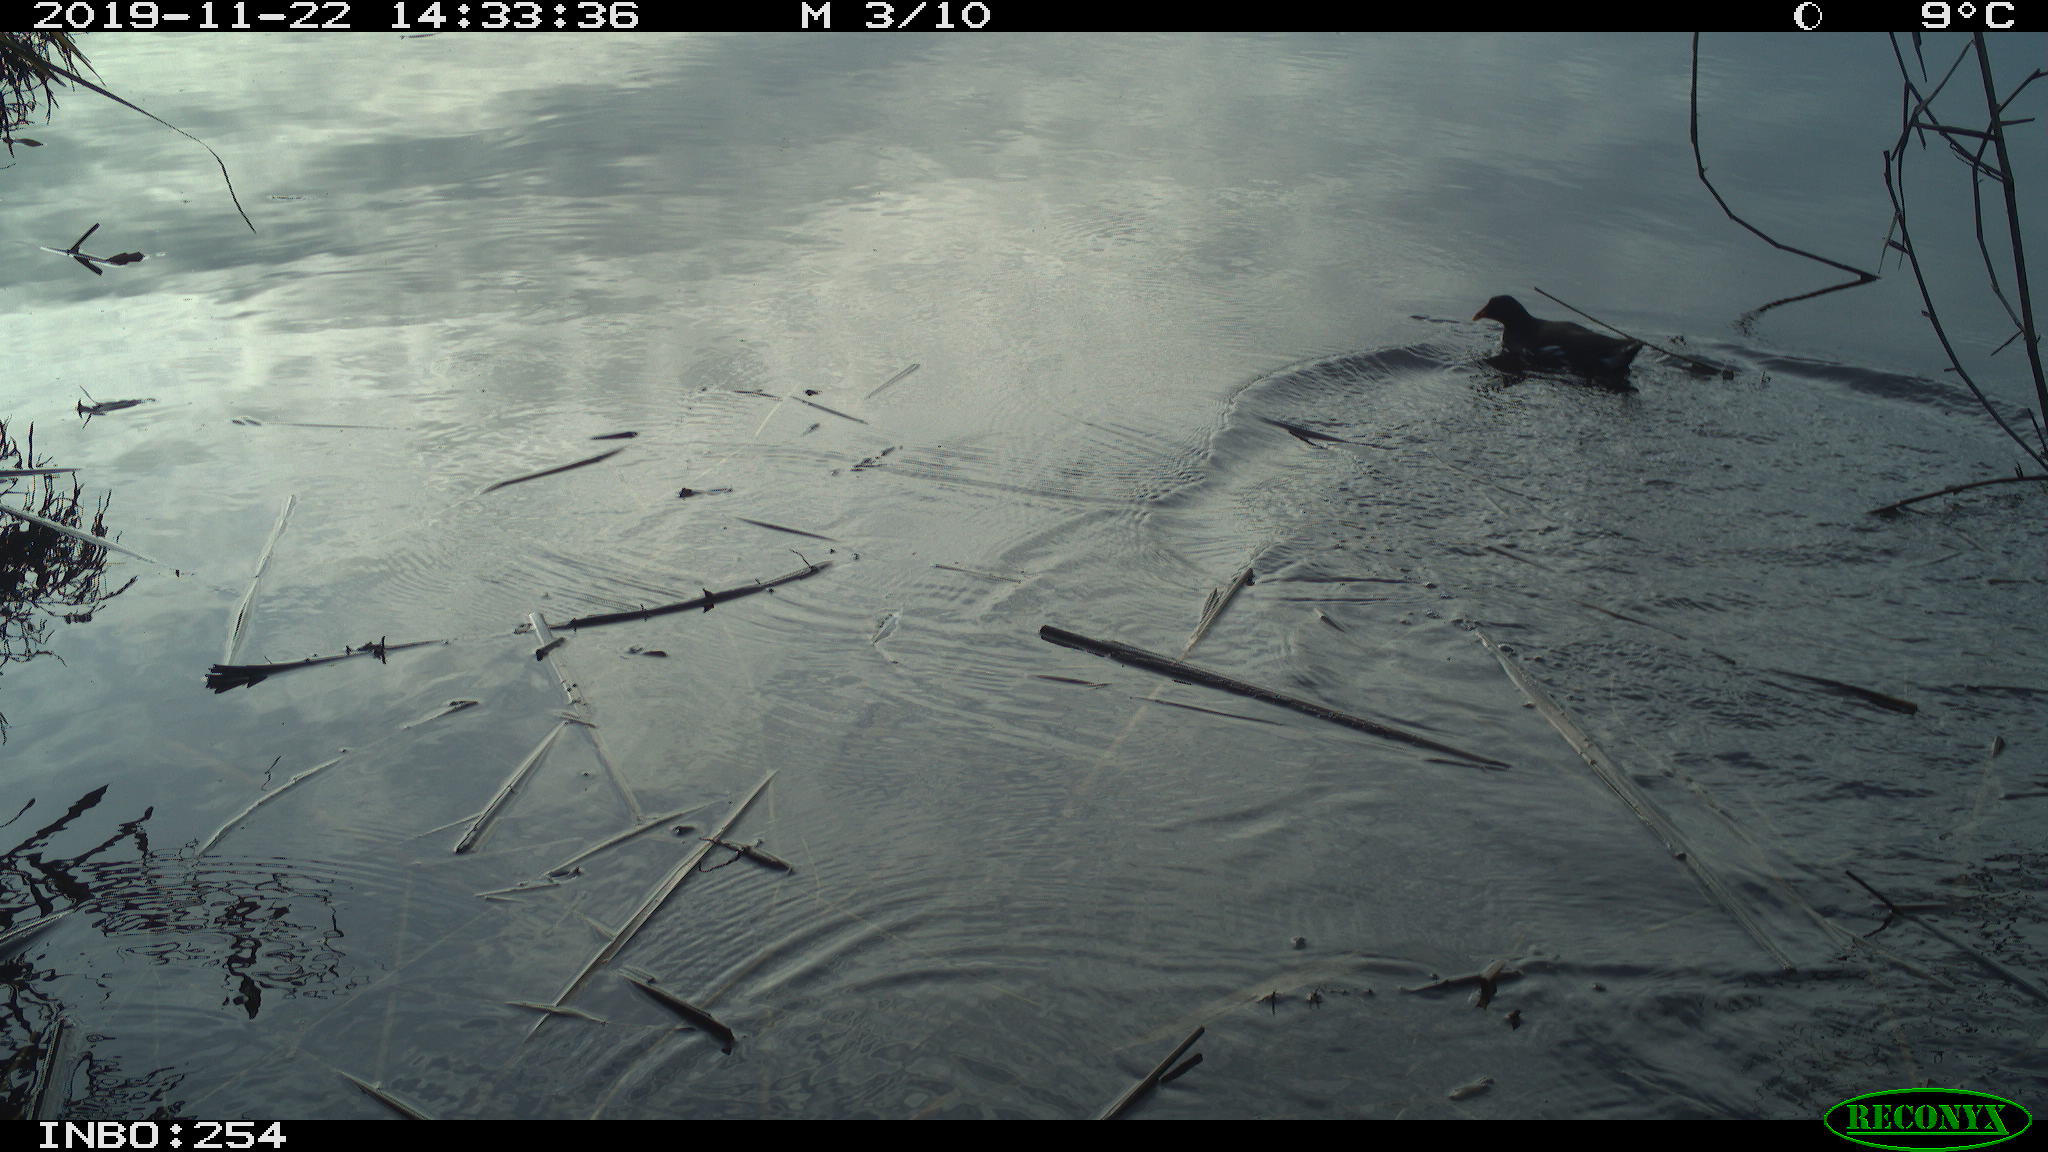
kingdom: Animalia
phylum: Chordata
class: Aves
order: Gruiformes
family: Rallidae
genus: Gallinula
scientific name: Gallinula chloropus
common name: Common moorhen
